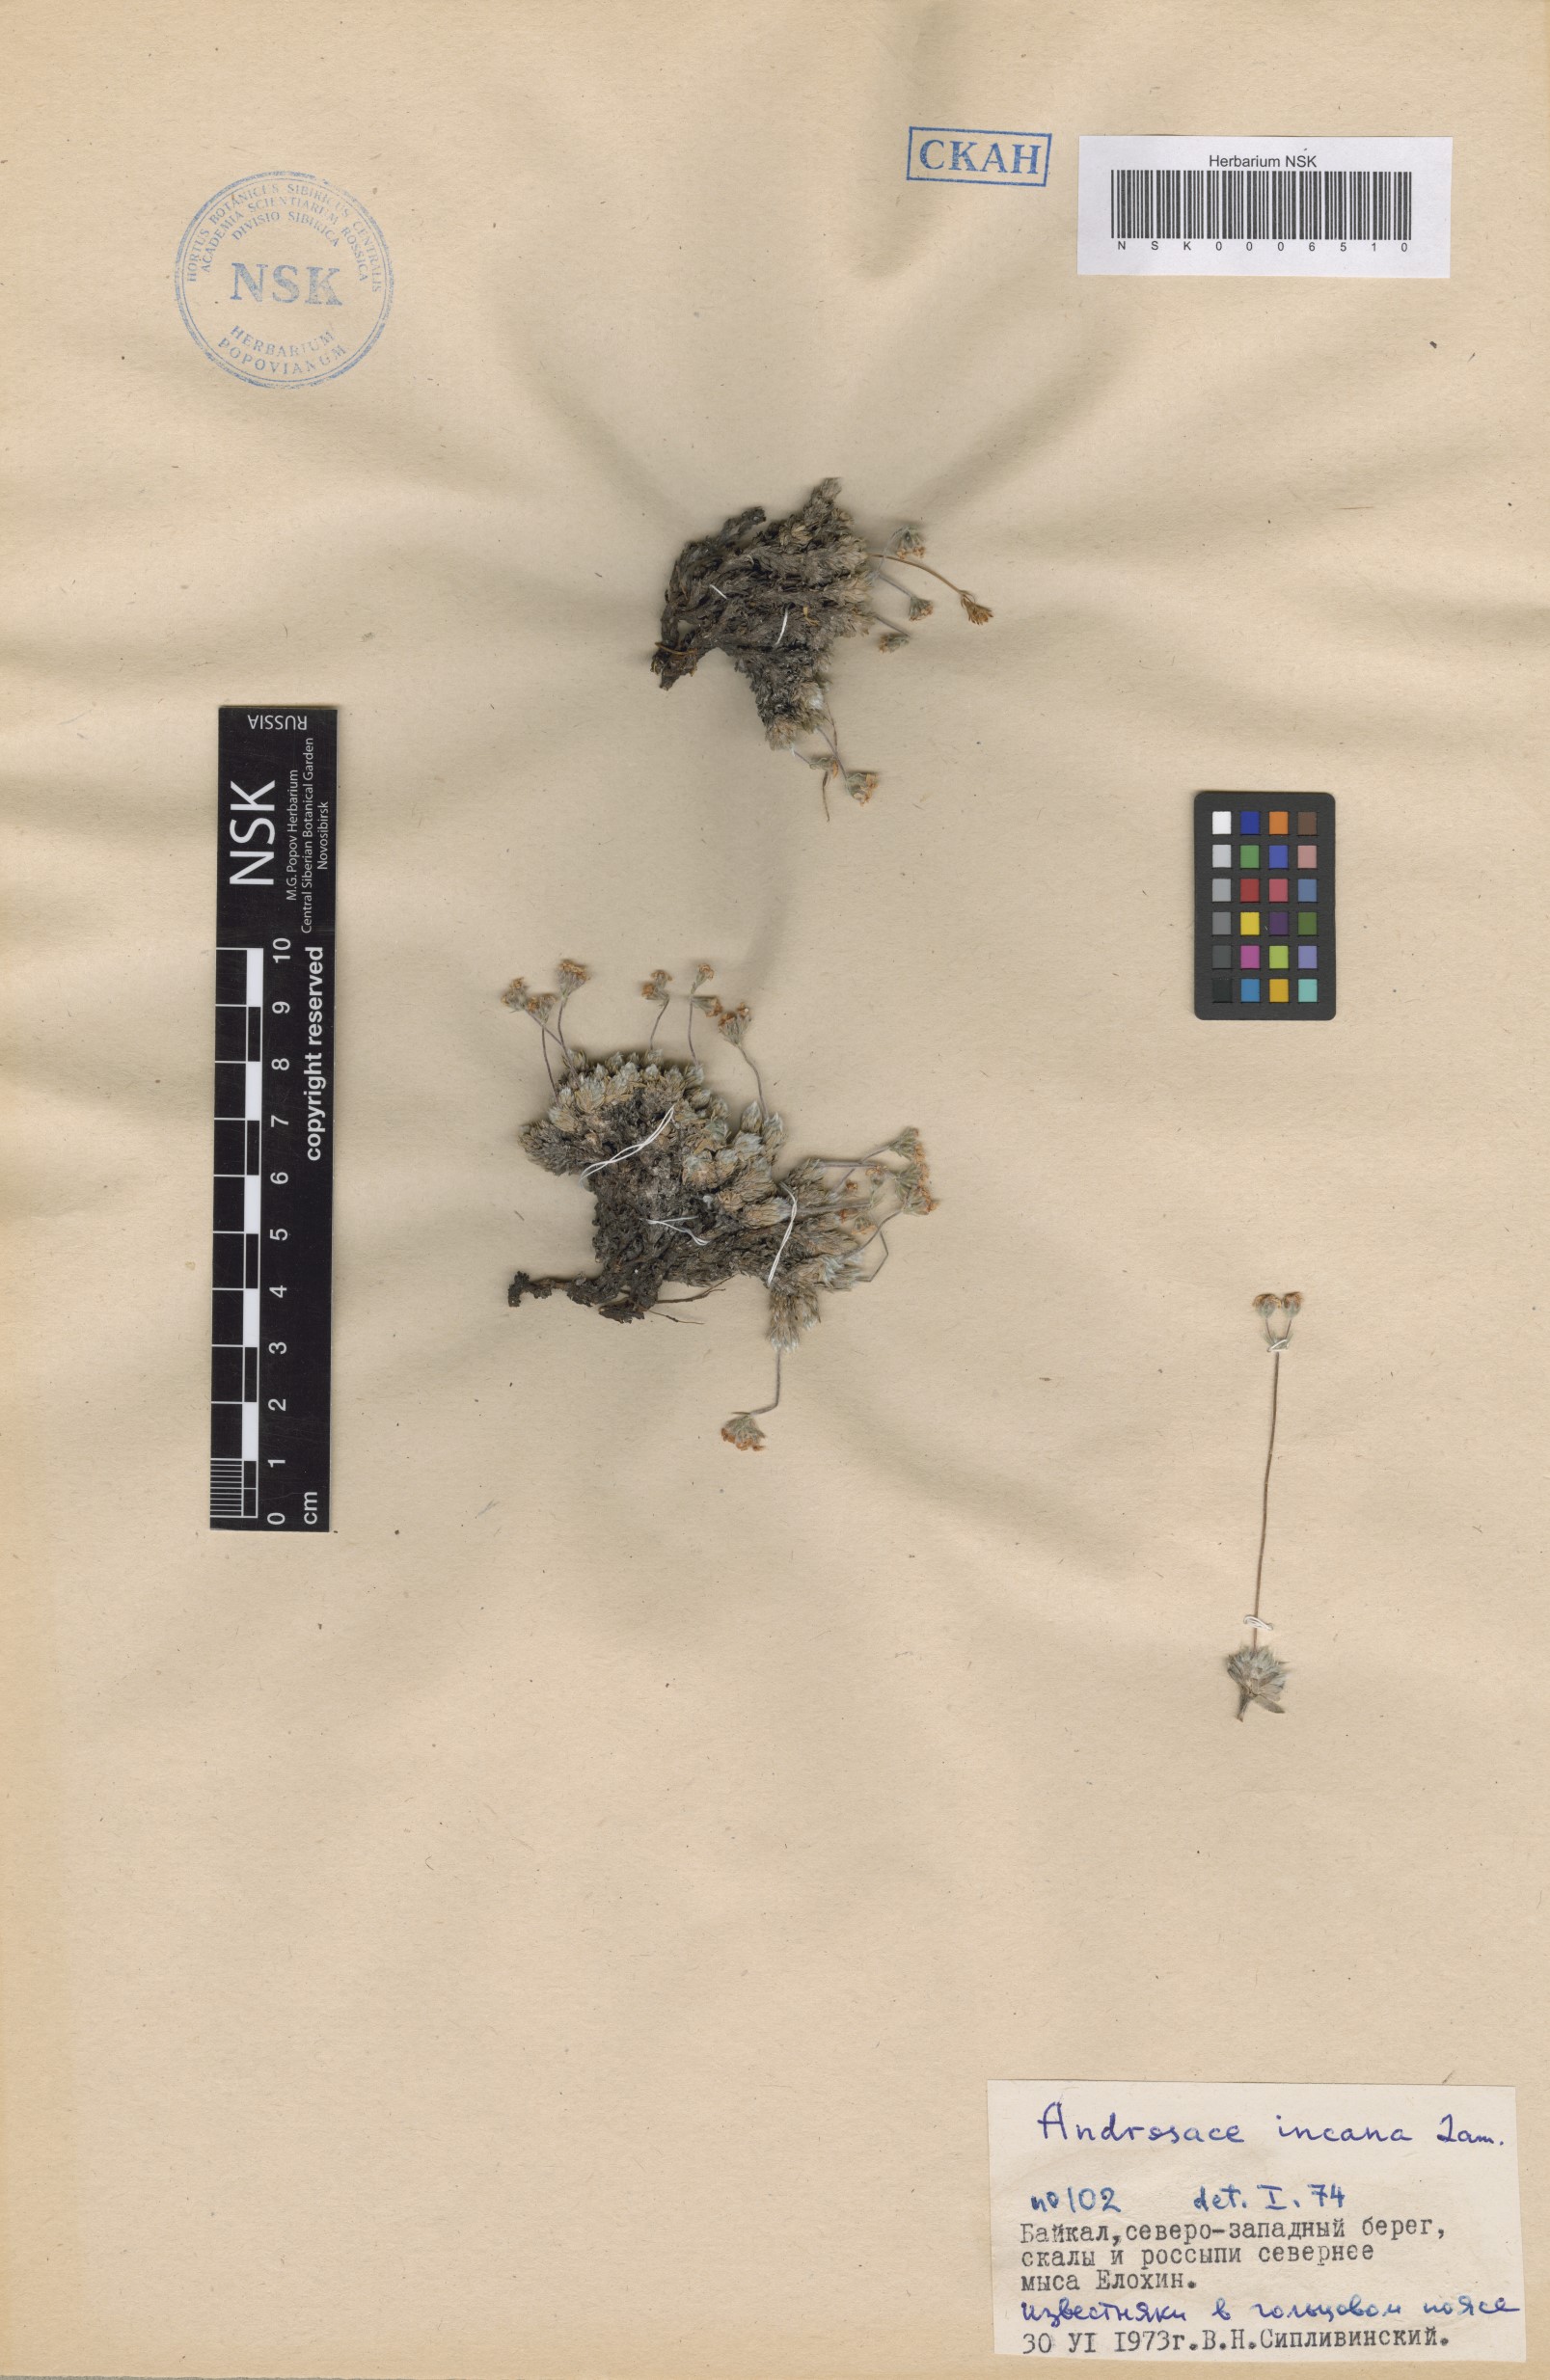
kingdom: Plantae
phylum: Tracheophyta
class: Magnoliopsida
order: Ericales
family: Primulaceae
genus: Androsace
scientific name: Androsace incana
